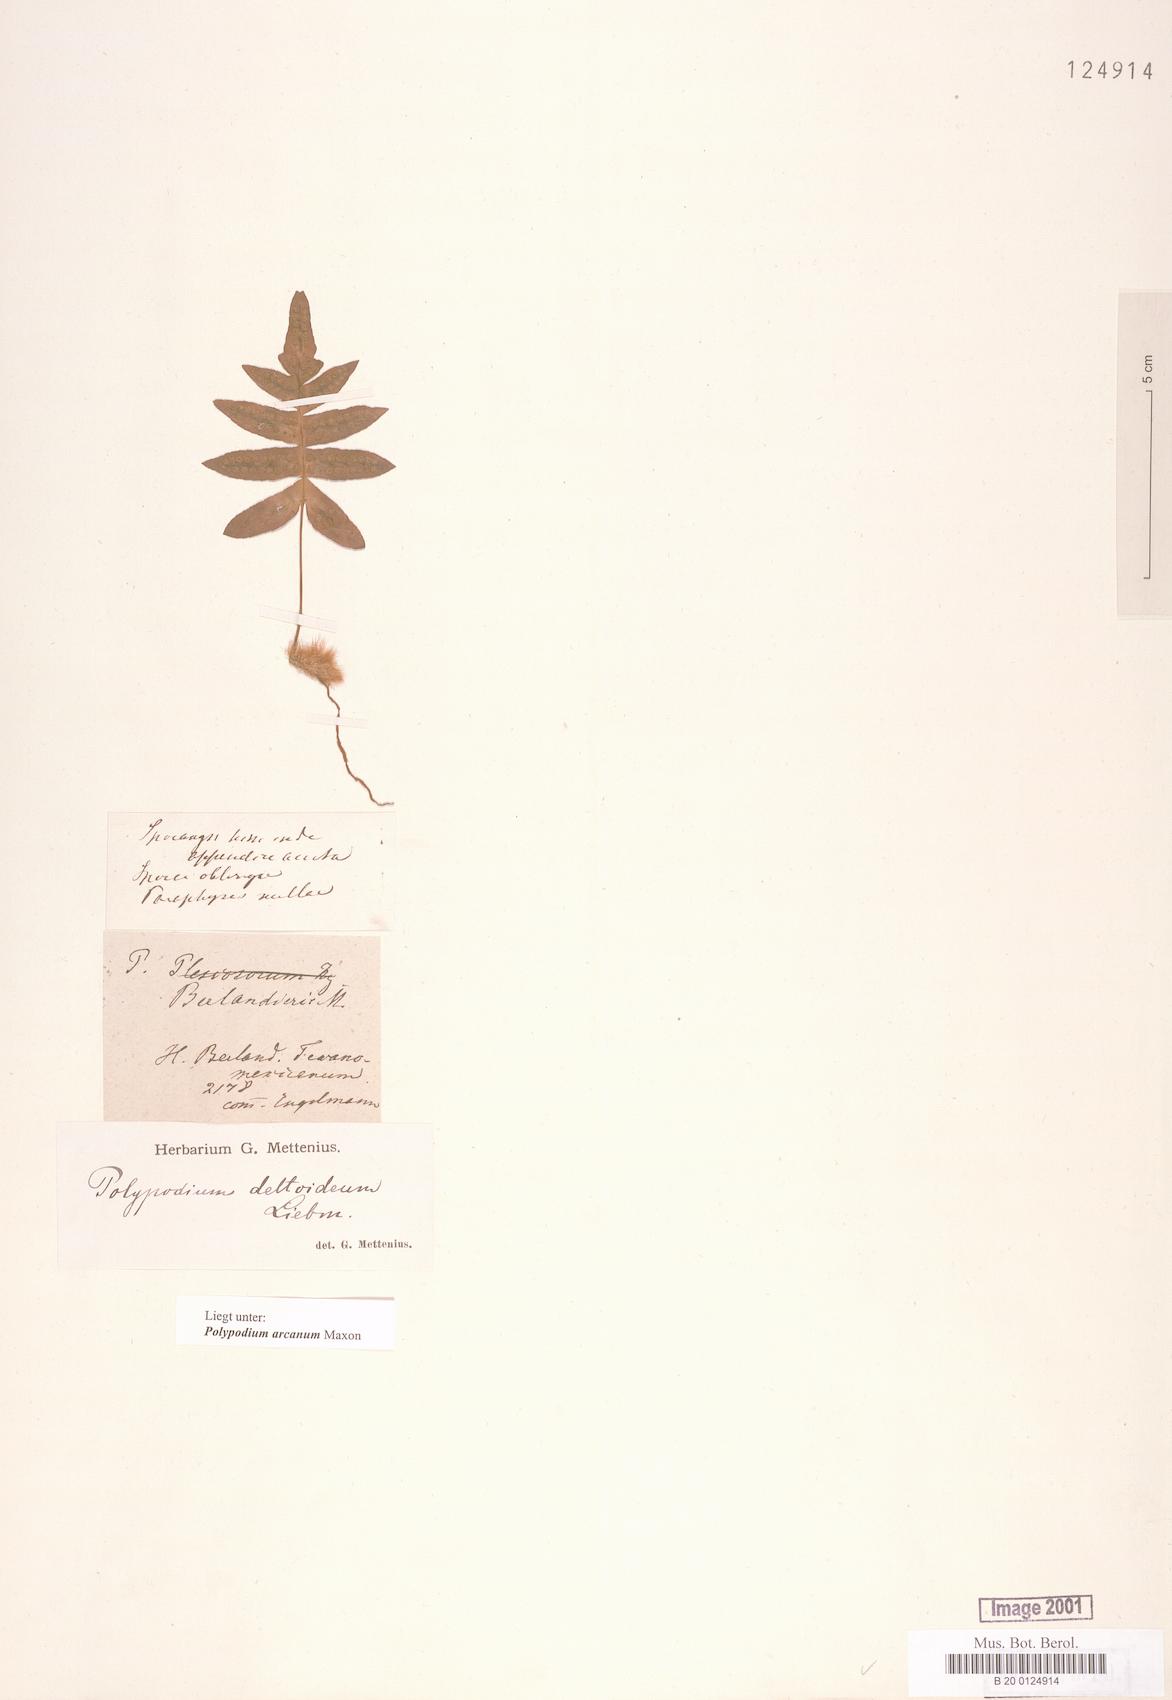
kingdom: Plantae
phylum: Tracheophyta
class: Polypodiopsida
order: Polypodiales
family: Polypodiaceae
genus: Polypodium
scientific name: Polypodium arcanum
